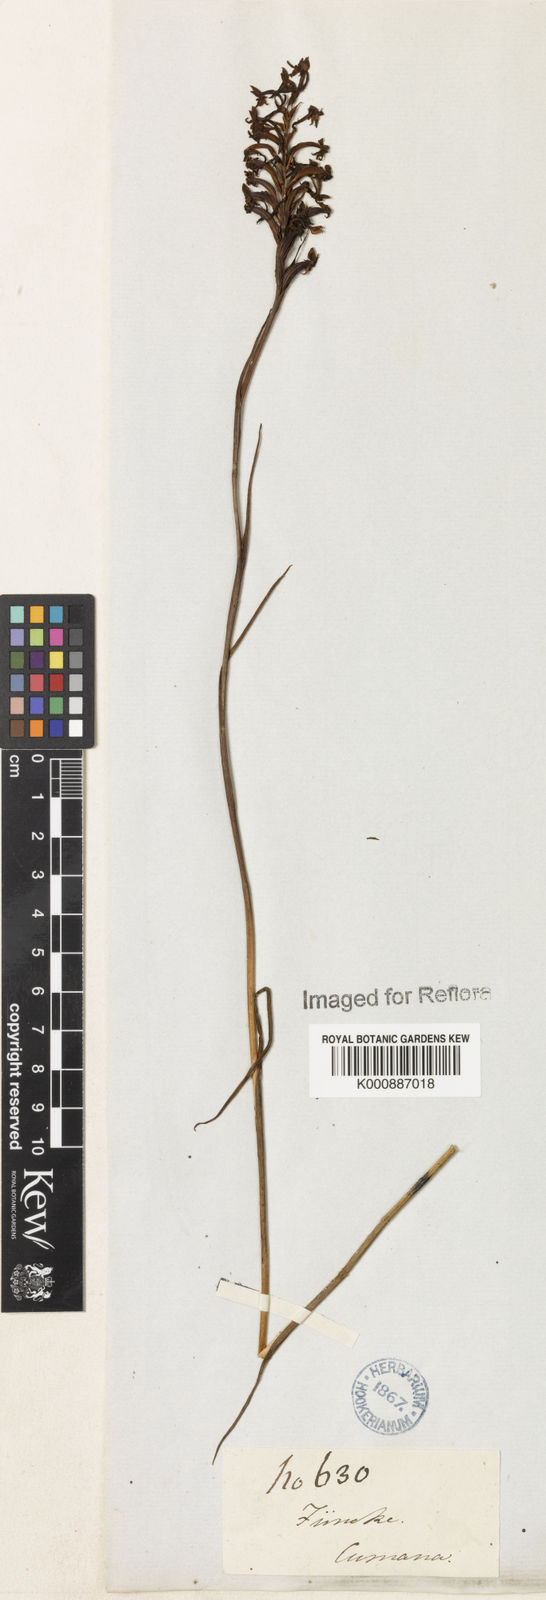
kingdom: Plantae
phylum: Tracheophyta
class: Liliopsida
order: Asparagales
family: Orchidaceae
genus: Habenaria
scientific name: Habenaria heptadactyla
